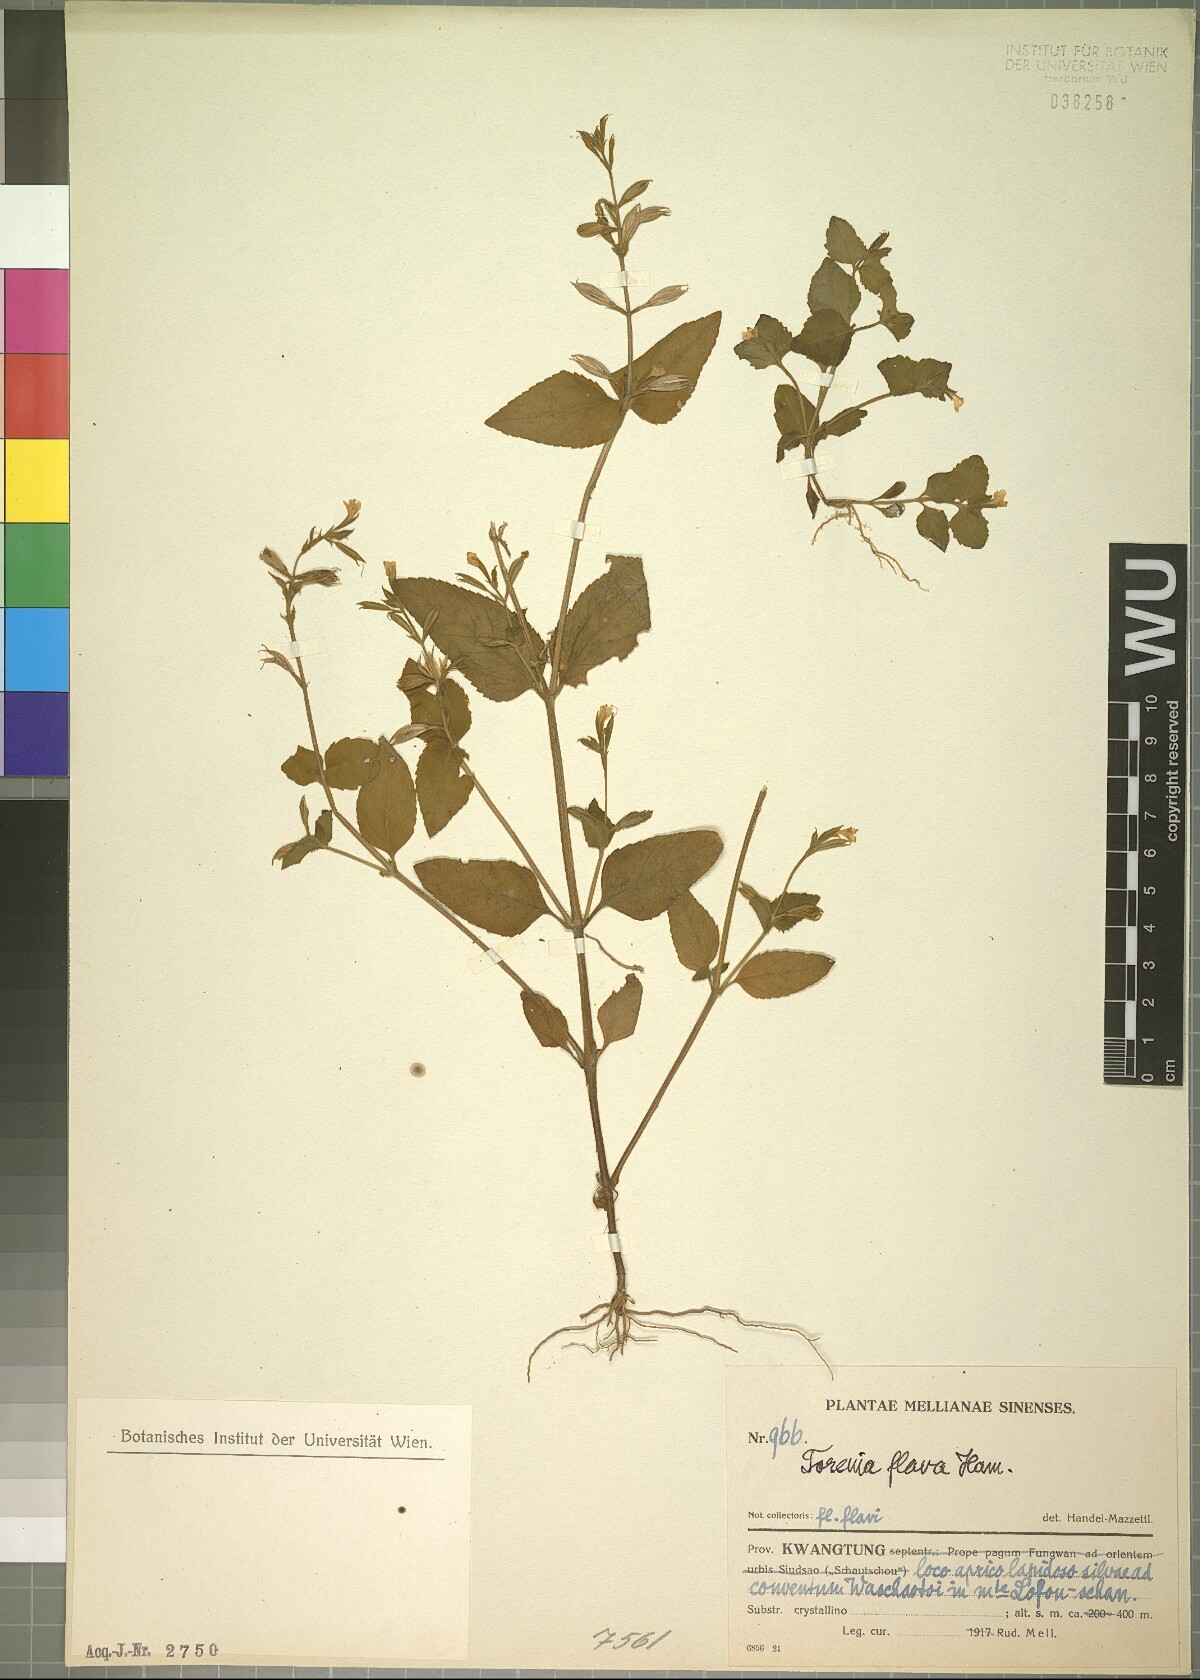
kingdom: Plantae
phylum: Tracheophyta
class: Magnoliopsida
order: Lamiales
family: Linderniaceae
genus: Torenia
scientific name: Torenia flava
